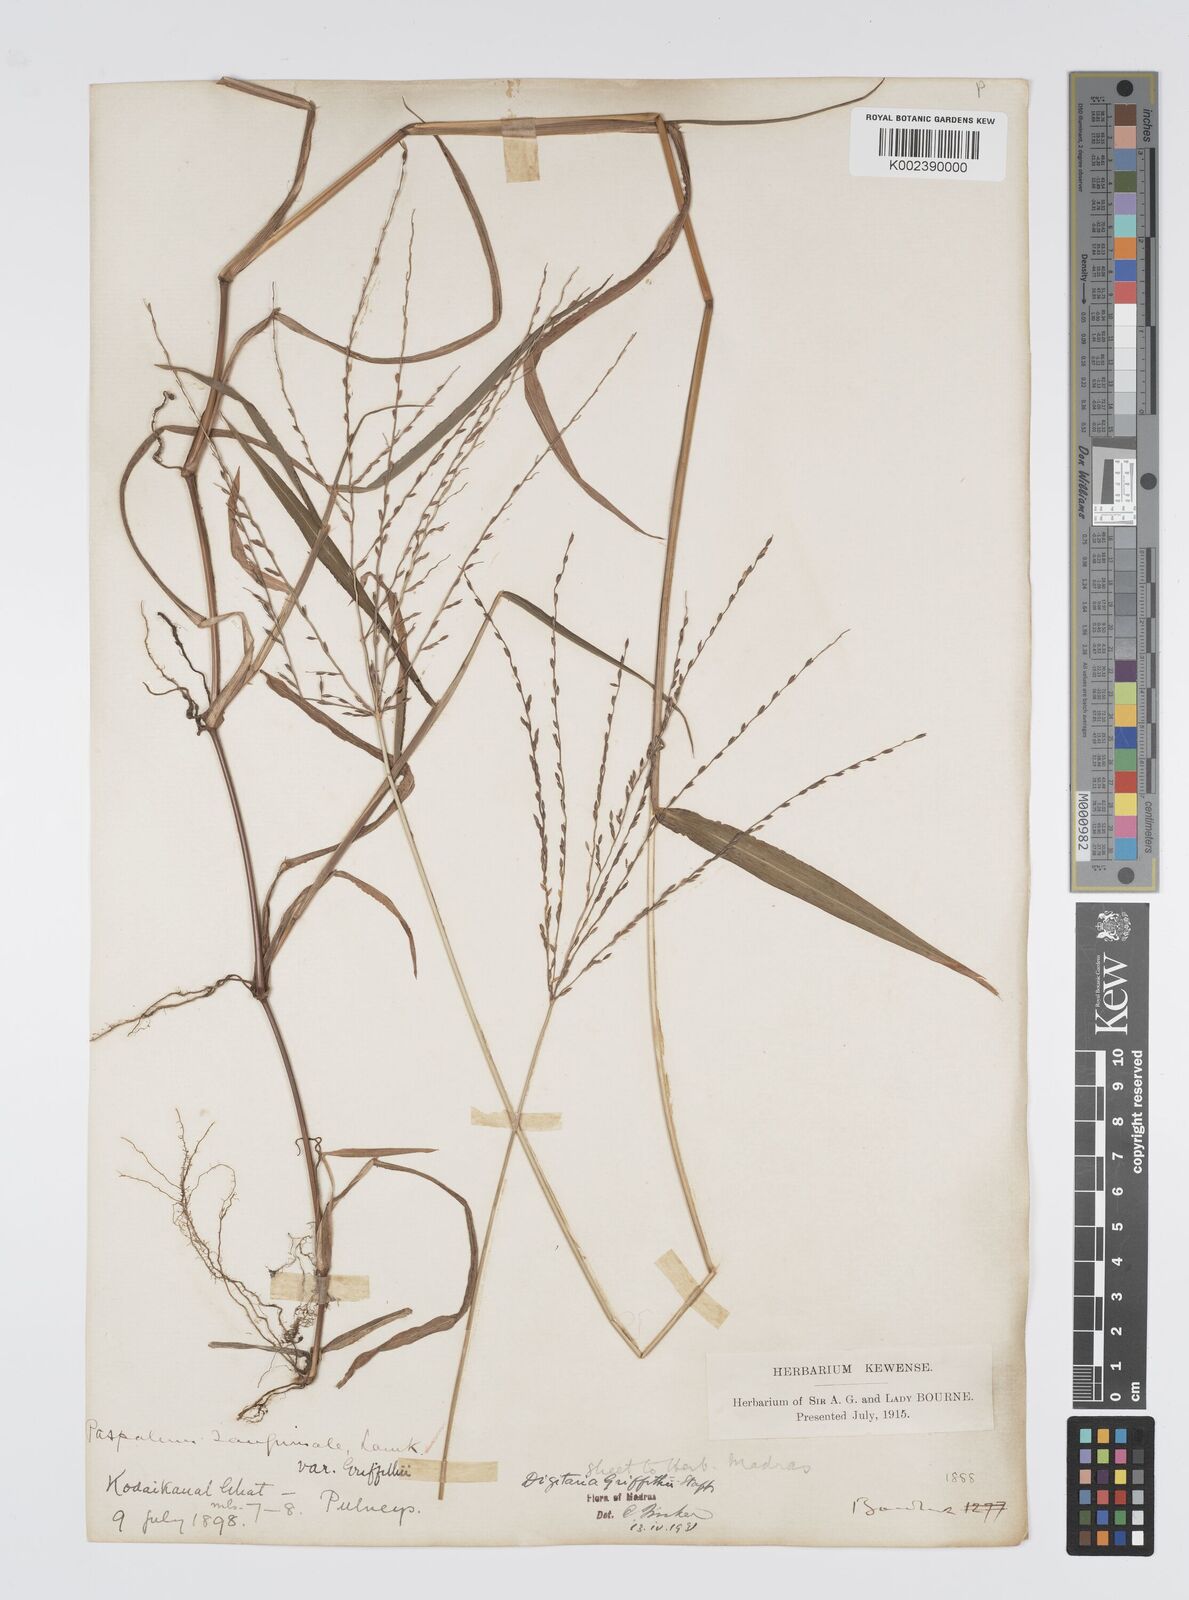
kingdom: Plantae
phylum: Tracheophyta
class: Liliopsida
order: Poales
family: Poaceae
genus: Digitaria
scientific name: Digitaria griffithii
